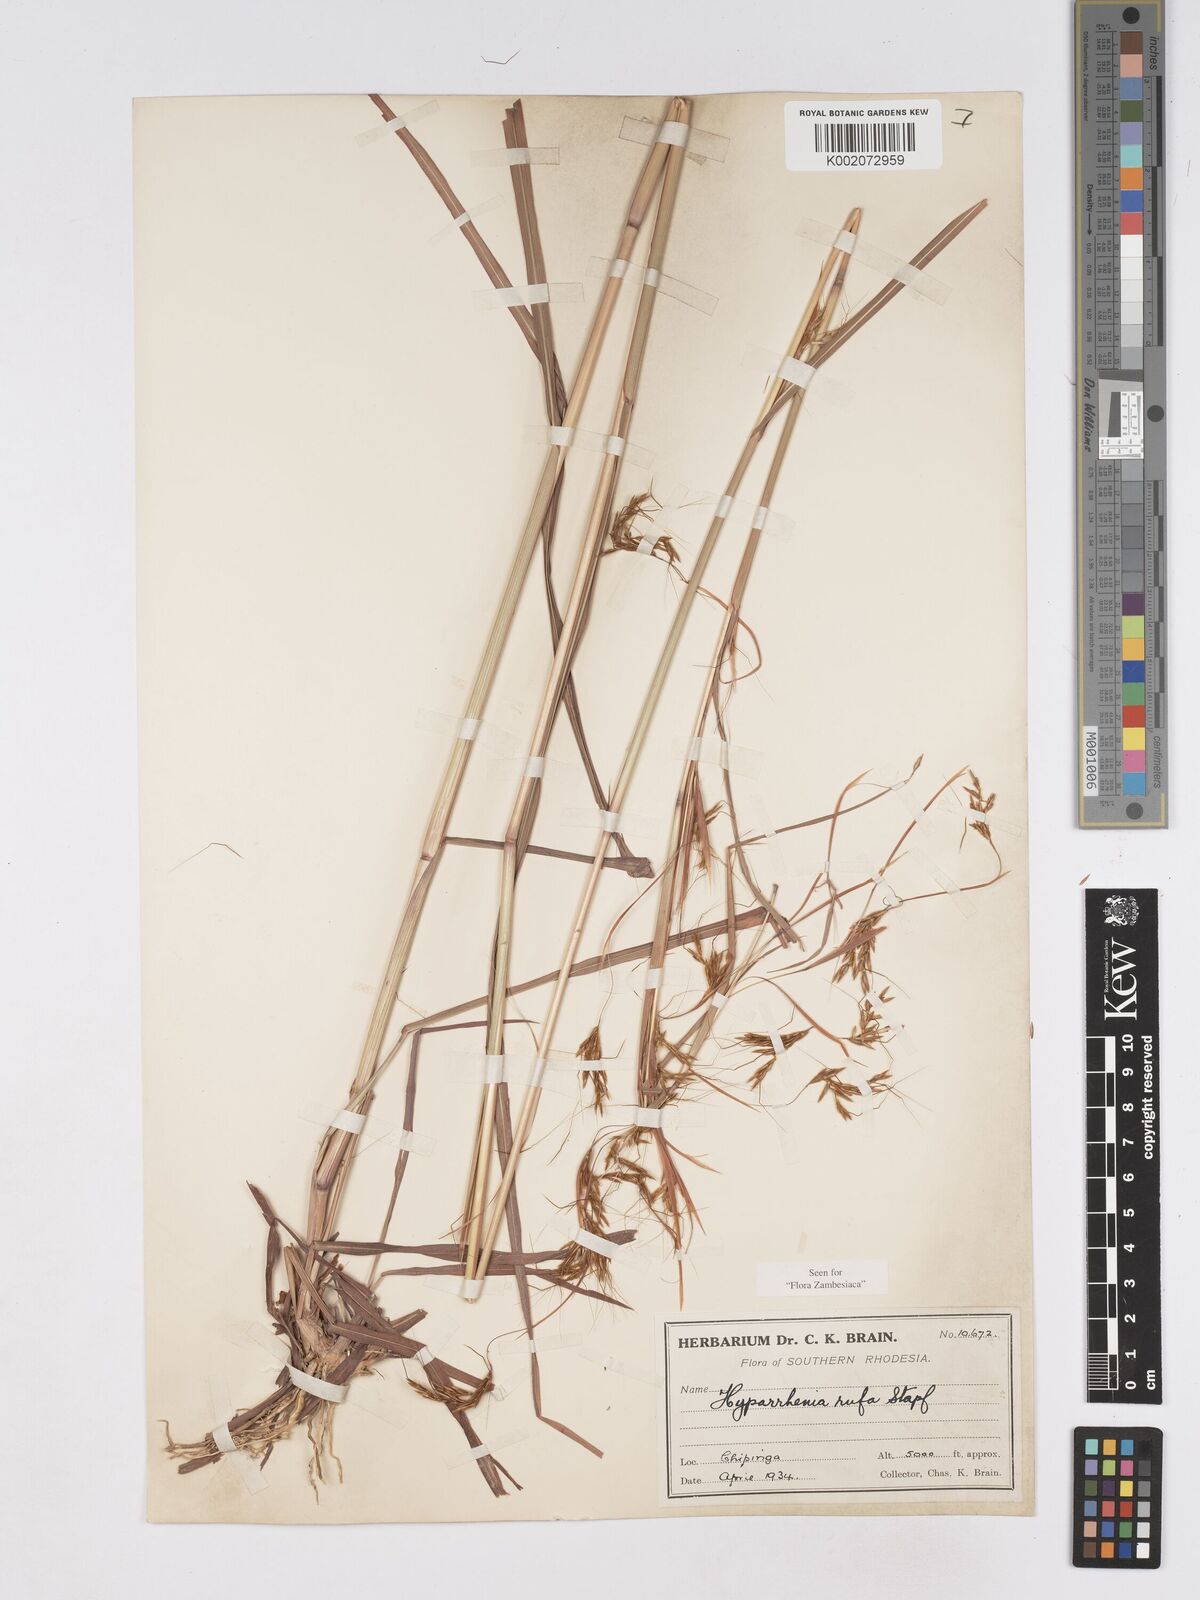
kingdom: Plantae
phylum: Tracheophyta
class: Liliopsida
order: Poales
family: Poaceae
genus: Hyparrhenia
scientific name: Hyparrhenia rufa
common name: Jaraguagrass
